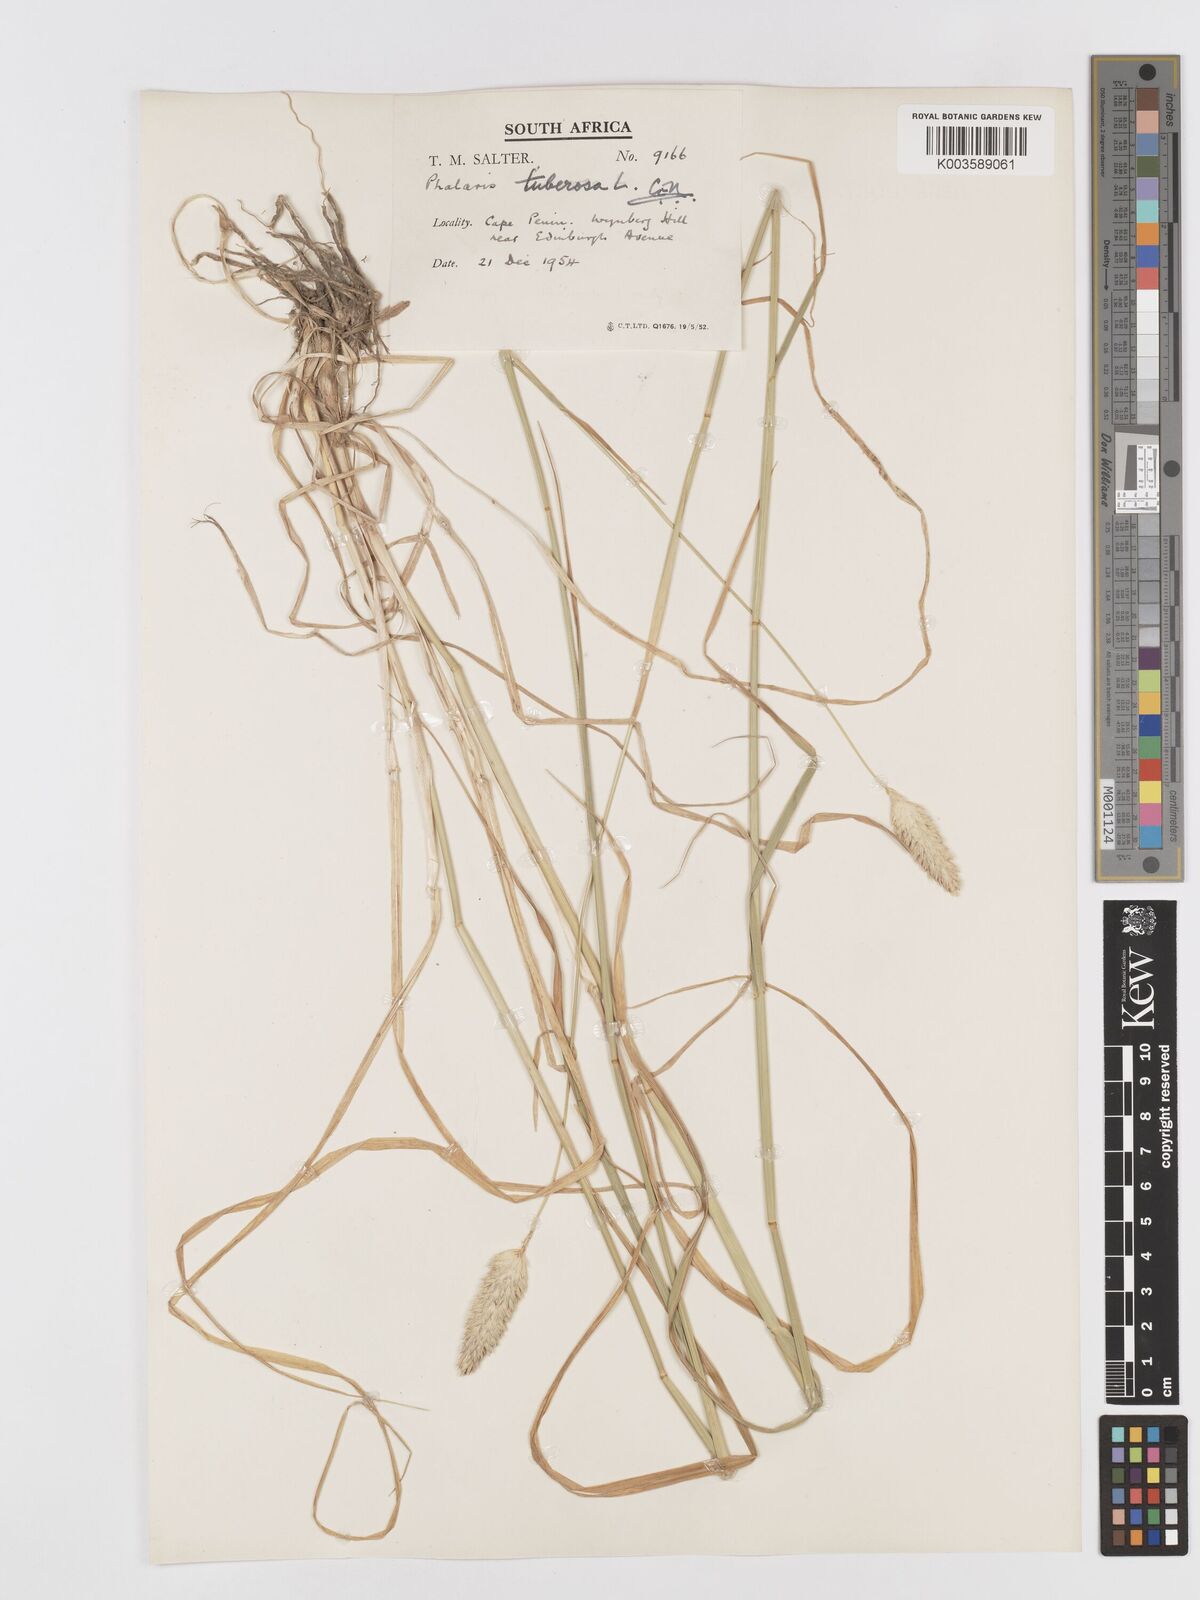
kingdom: Plantae
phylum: Tracheophyta
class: Liliopsida
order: Poales
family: Poaceae
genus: Phalaris
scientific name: Phalaris aquatica
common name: Bulbous canary-grass
